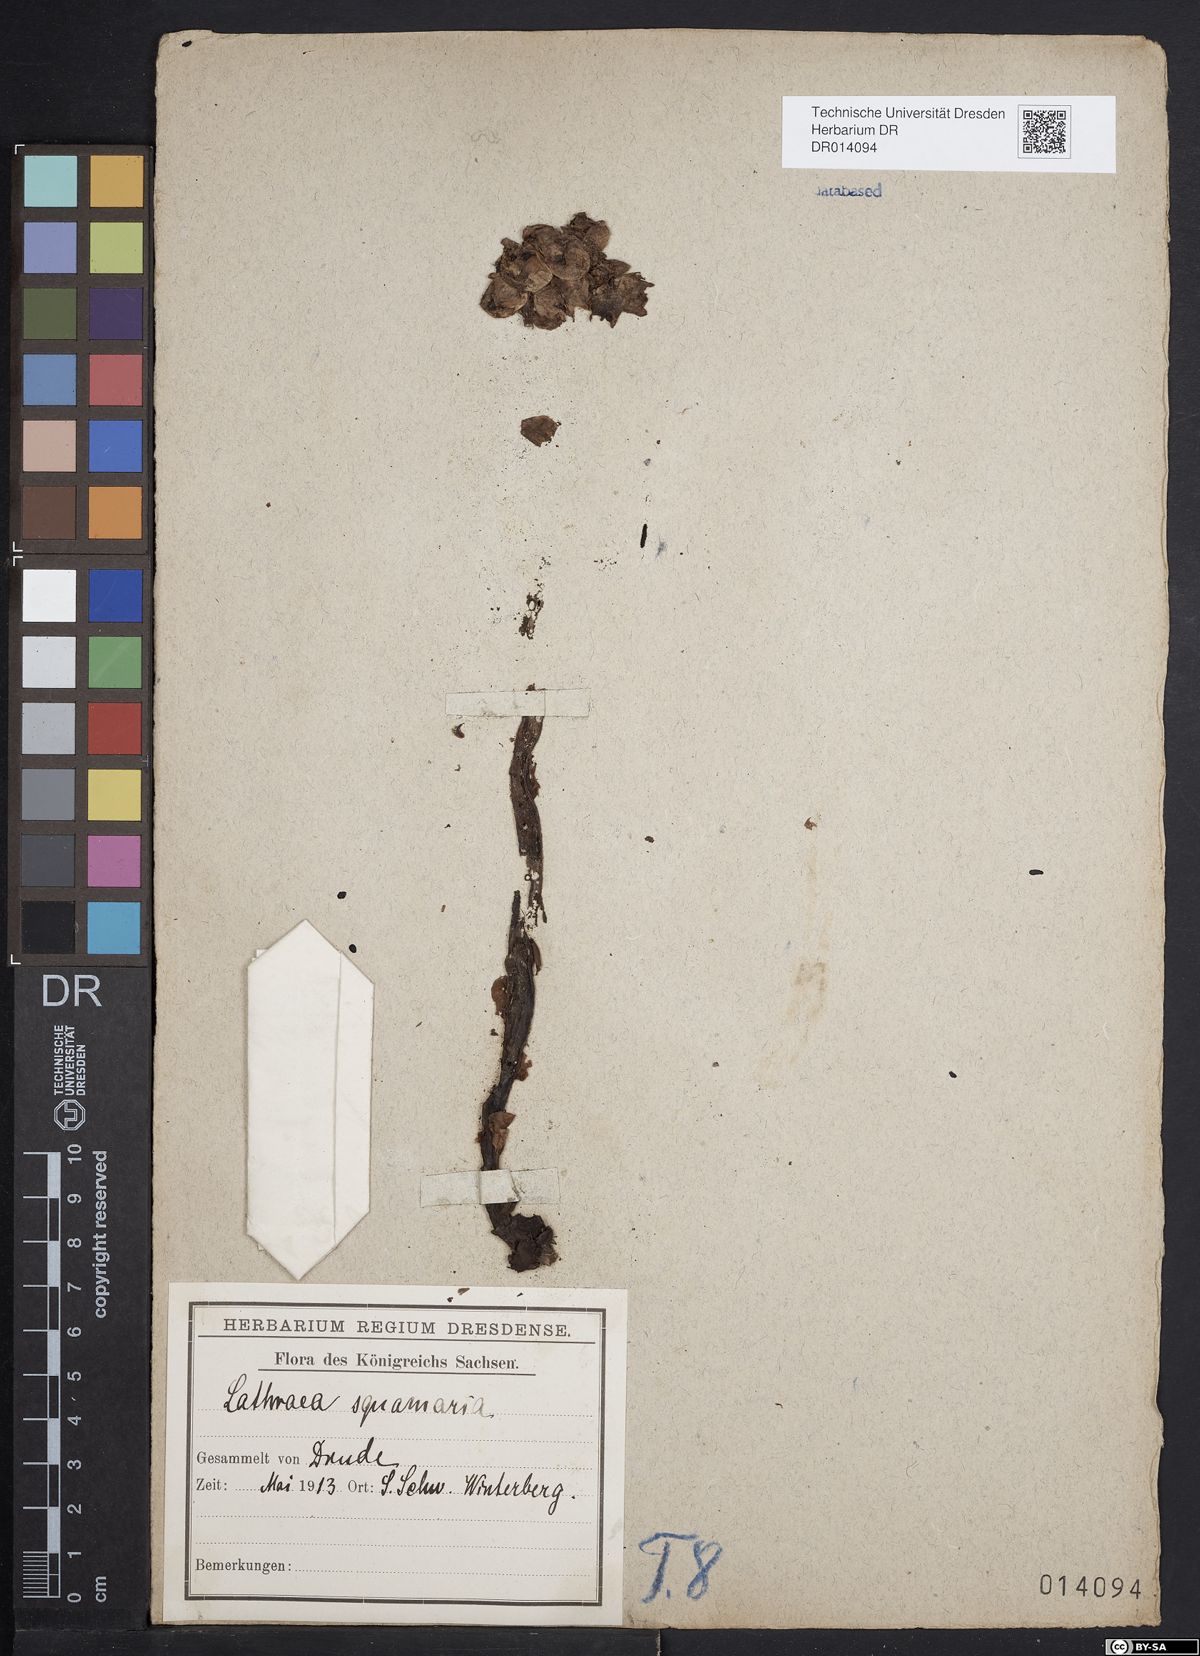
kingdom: Plantae
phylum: Tracheophyta
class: Magnoliopsida
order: Lamiales
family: Orobanchaceae
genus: Lathraea
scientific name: Lathraea squamaria
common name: Toothwort
